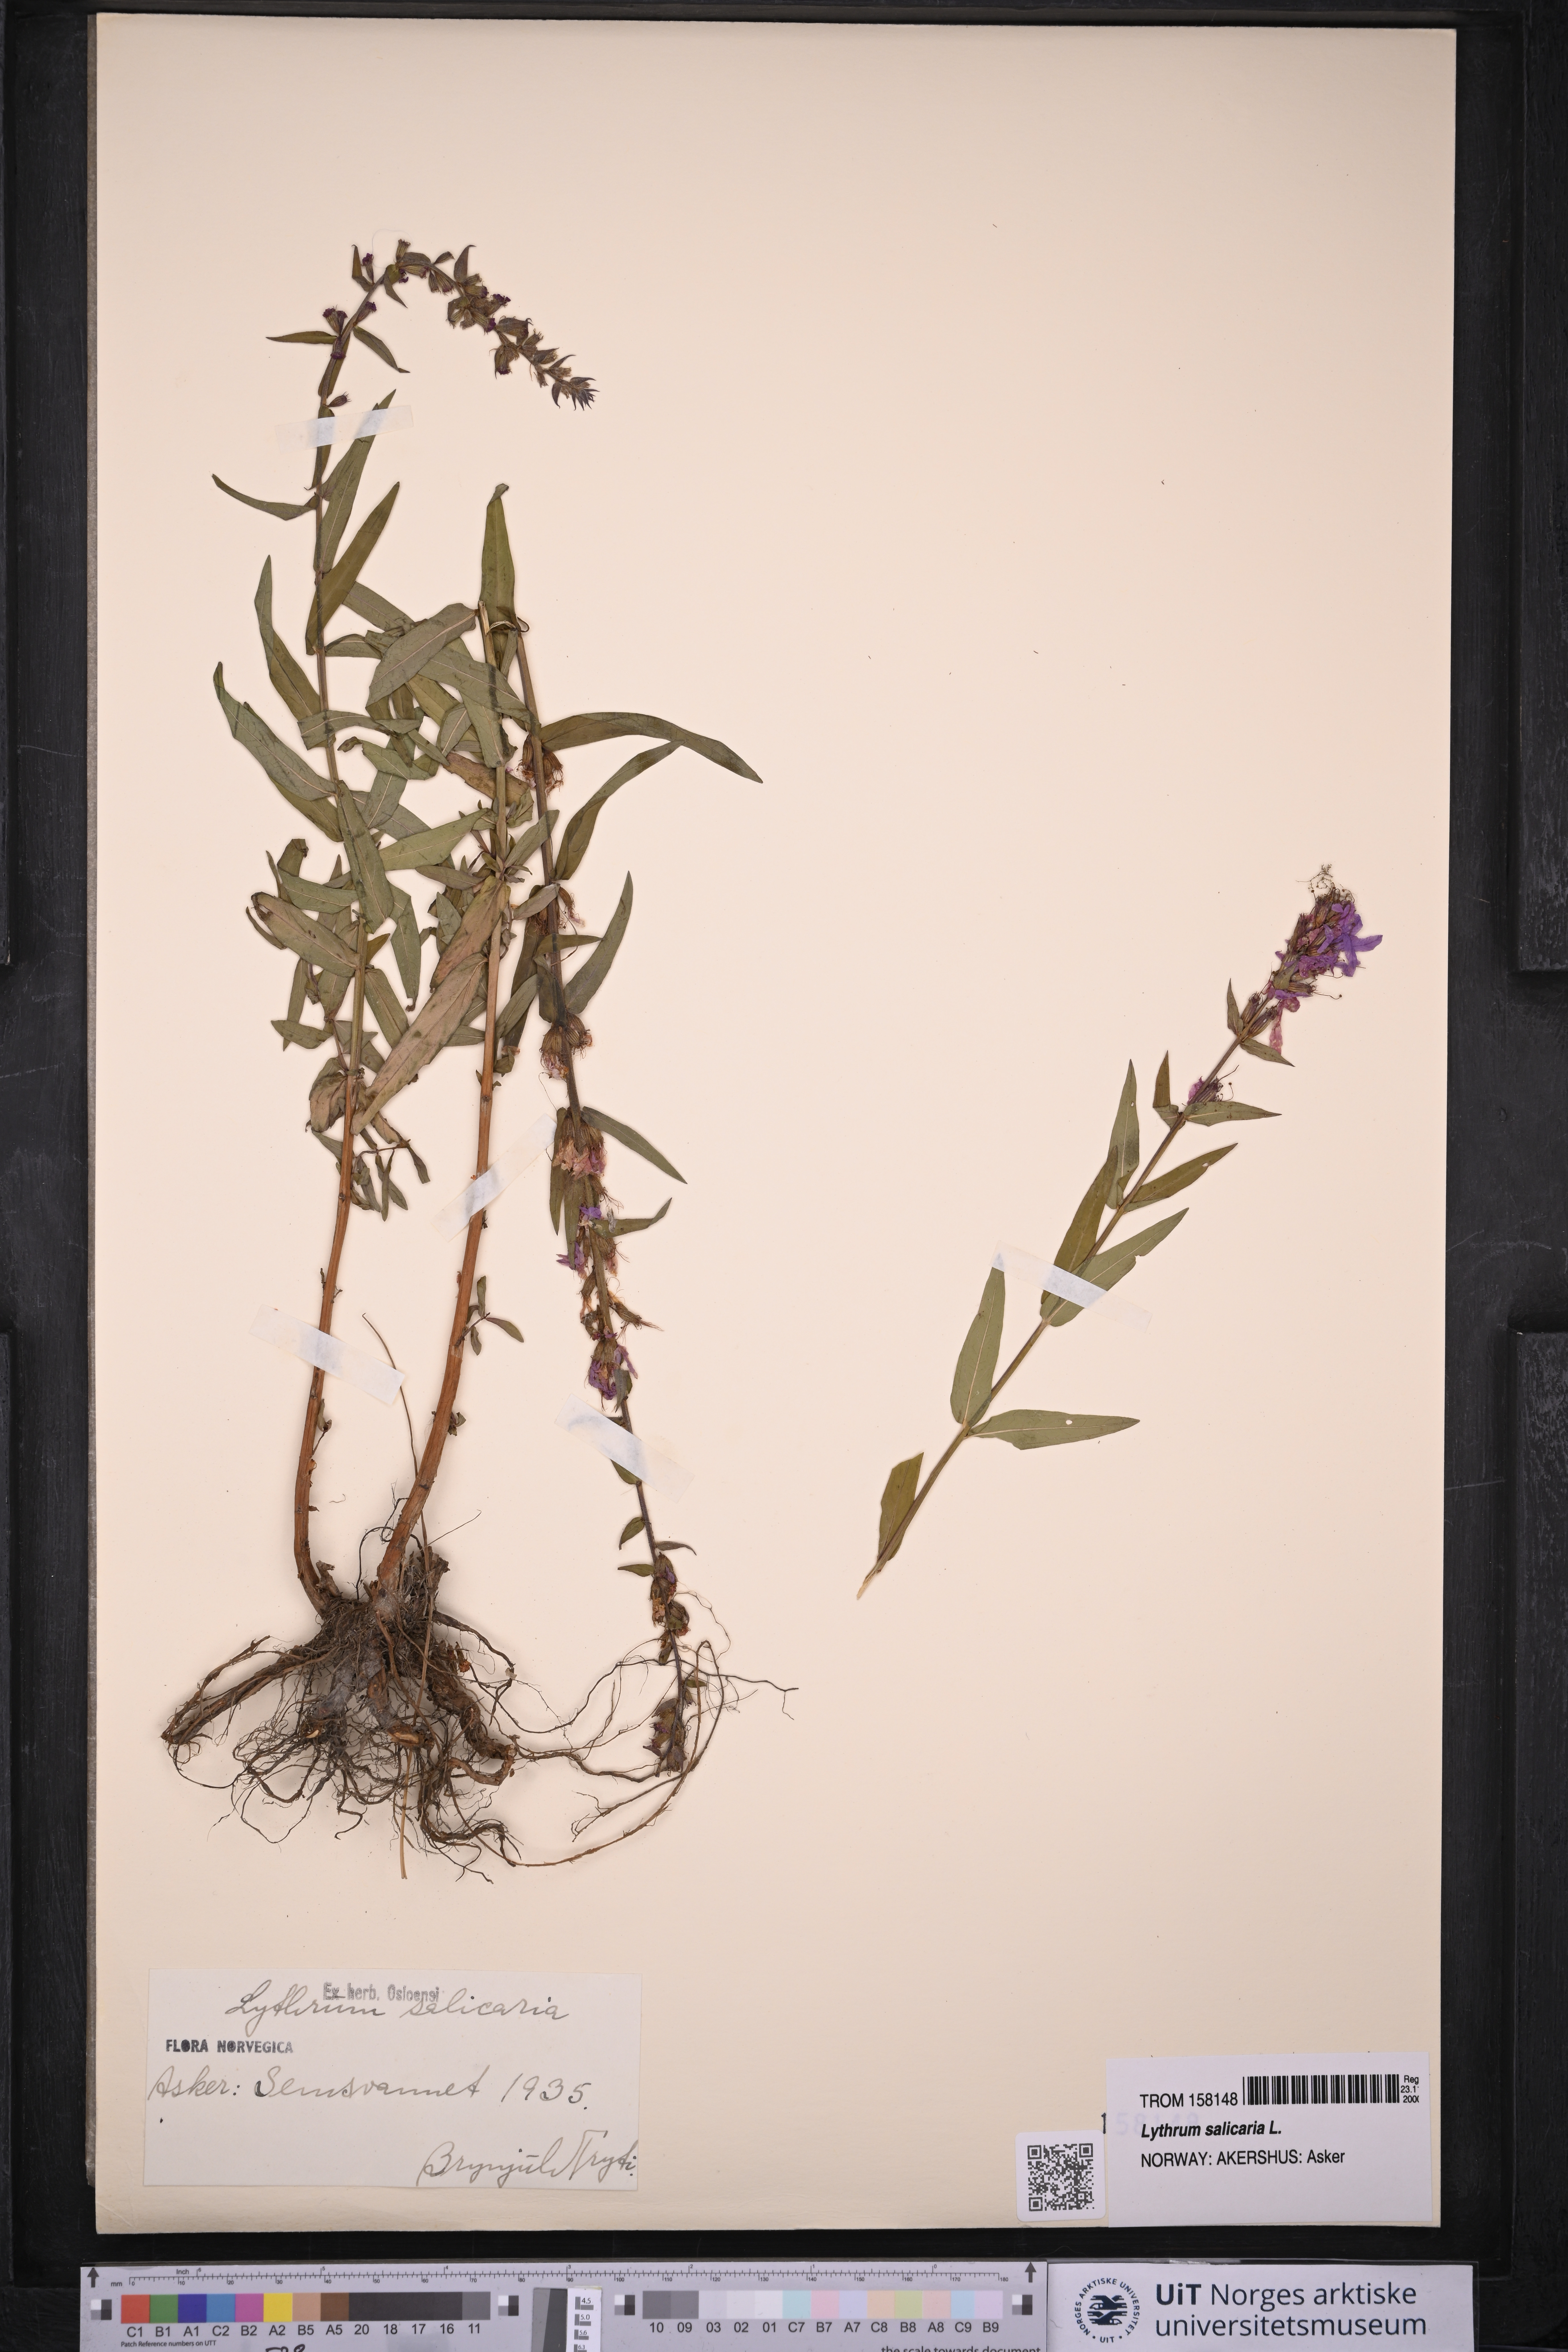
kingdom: Plantae
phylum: Tracheophyta
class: Magnoliopsida
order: Myrtales
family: Lythraceae
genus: Lythrum
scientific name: Lythrum salicaria
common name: Purple loosestrife
